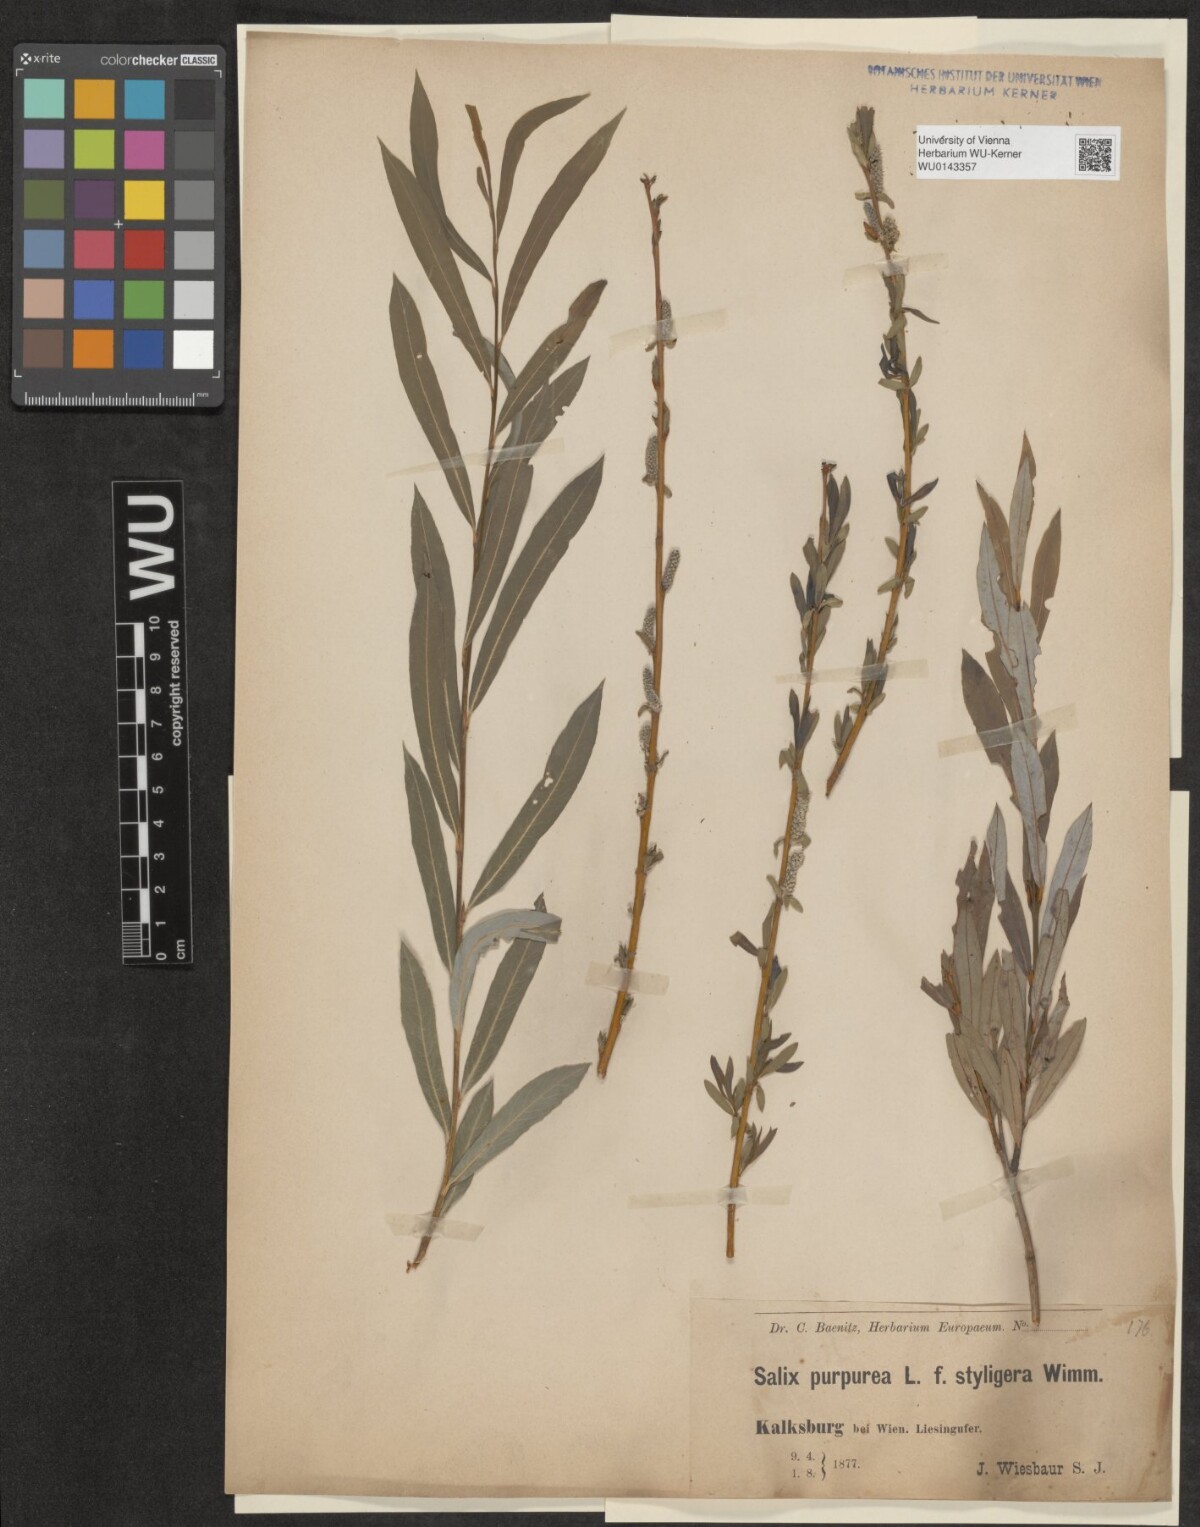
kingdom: Plantae
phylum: Tracheophyta
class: Magnoliopsida
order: Malpighiales
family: Salicaceae
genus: Salix
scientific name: Salix purpurea
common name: Purple willow
